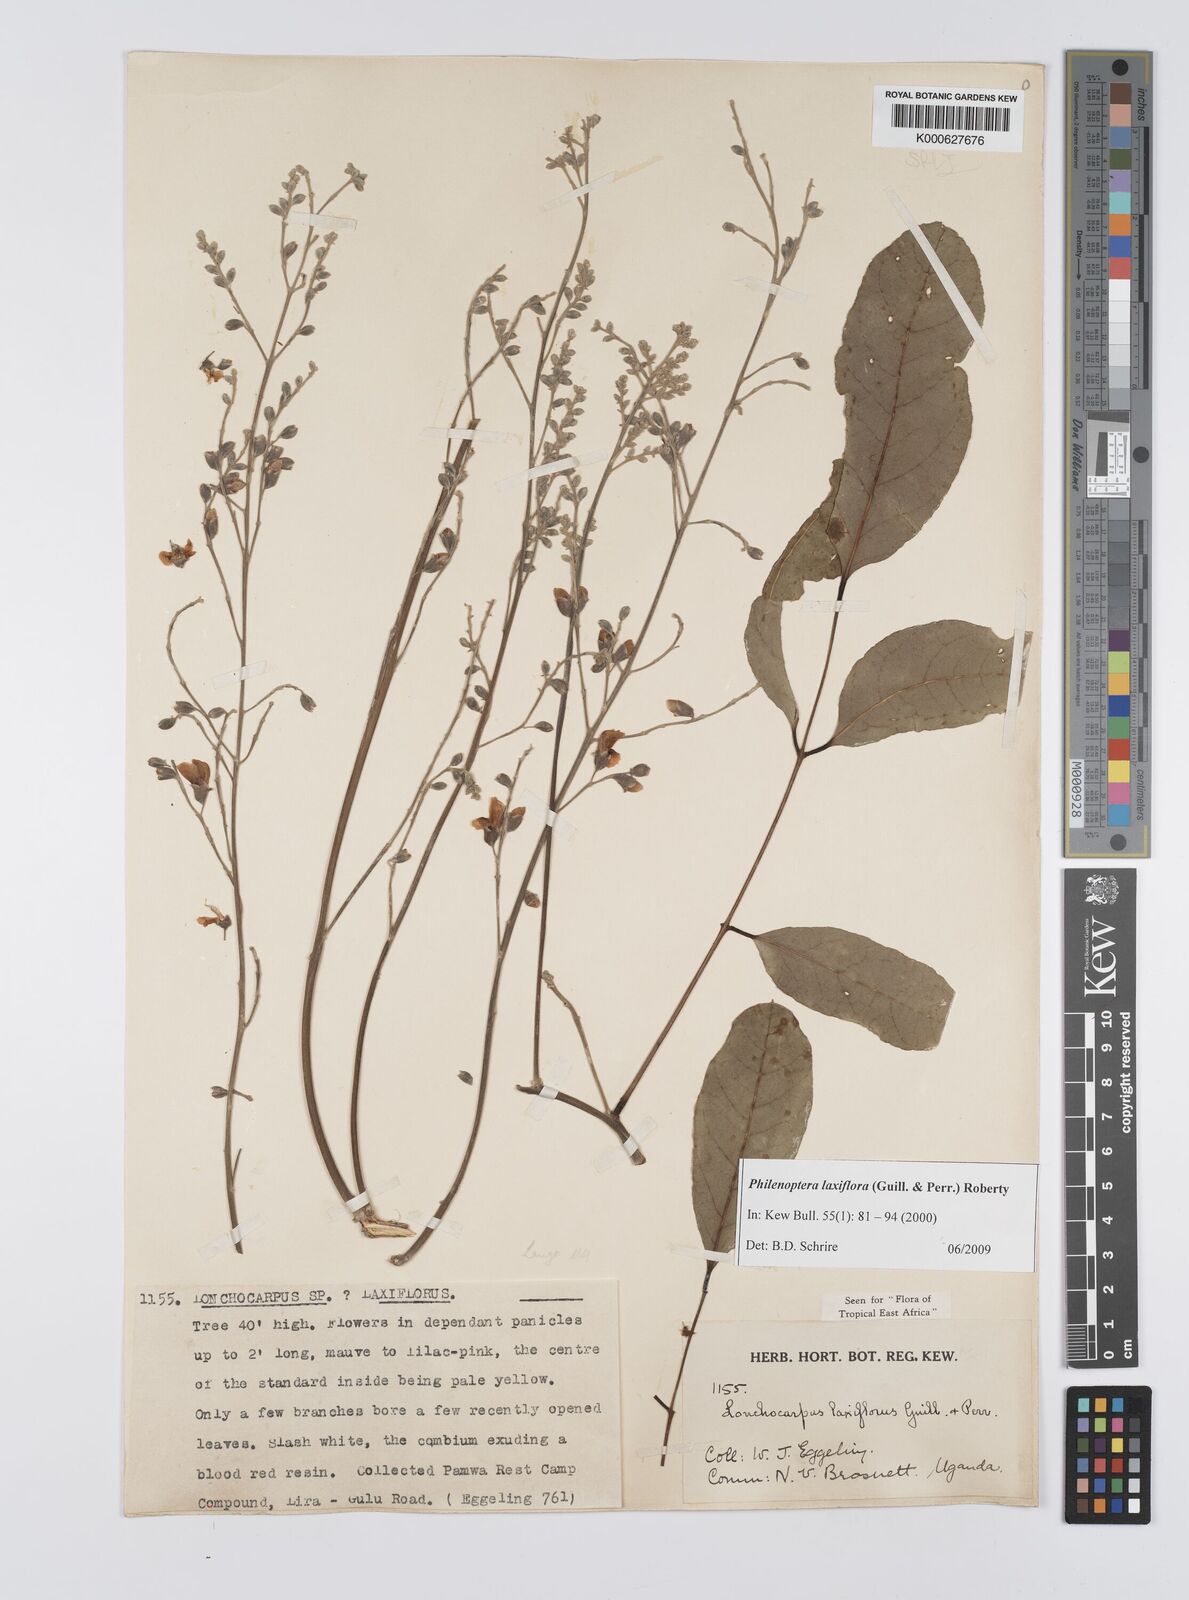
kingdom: Plantae
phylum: Tracheophyta
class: Magnoliopsida
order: Fabales
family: Fabaceae
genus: Philenoptera
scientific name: Philenoptera laxiflora
